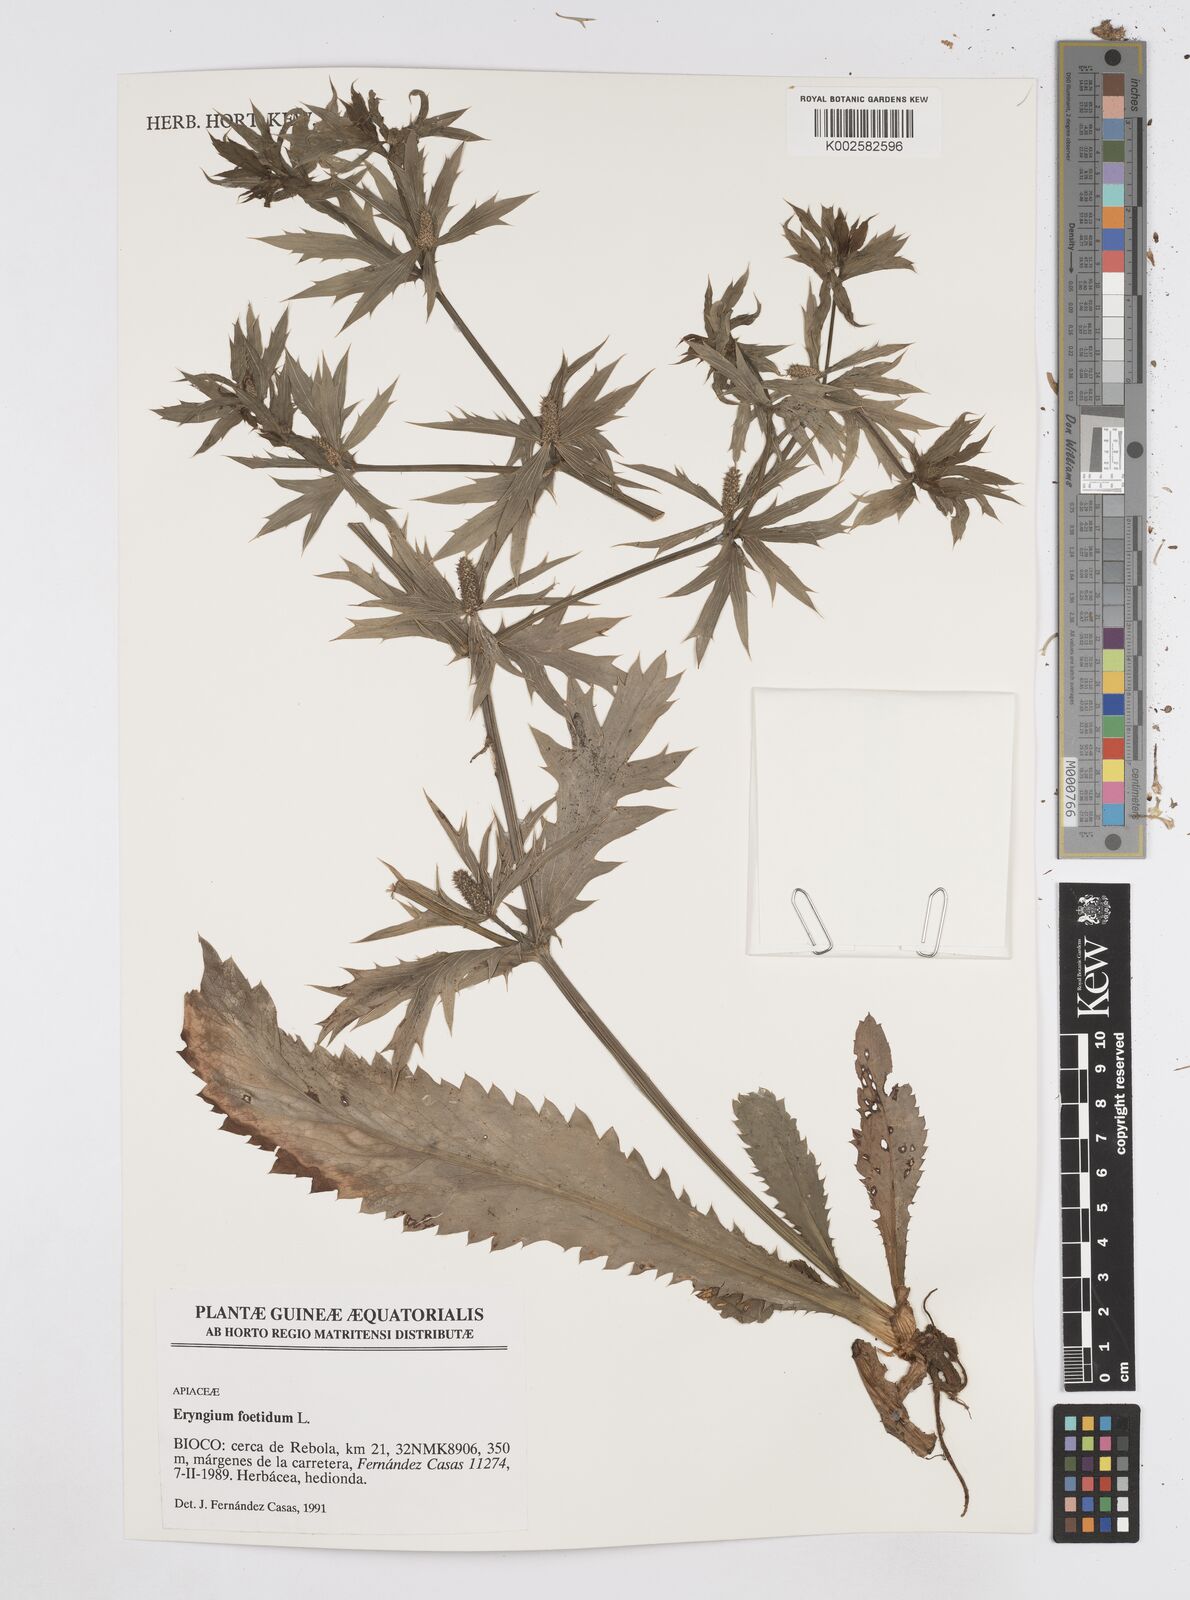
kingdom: Plantae
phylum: Tracheophyta
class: Magnoliopsida
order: Apiales
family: Apiaceae
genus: Eryngium
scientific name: Eryngium foetidum
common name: Fitweed
